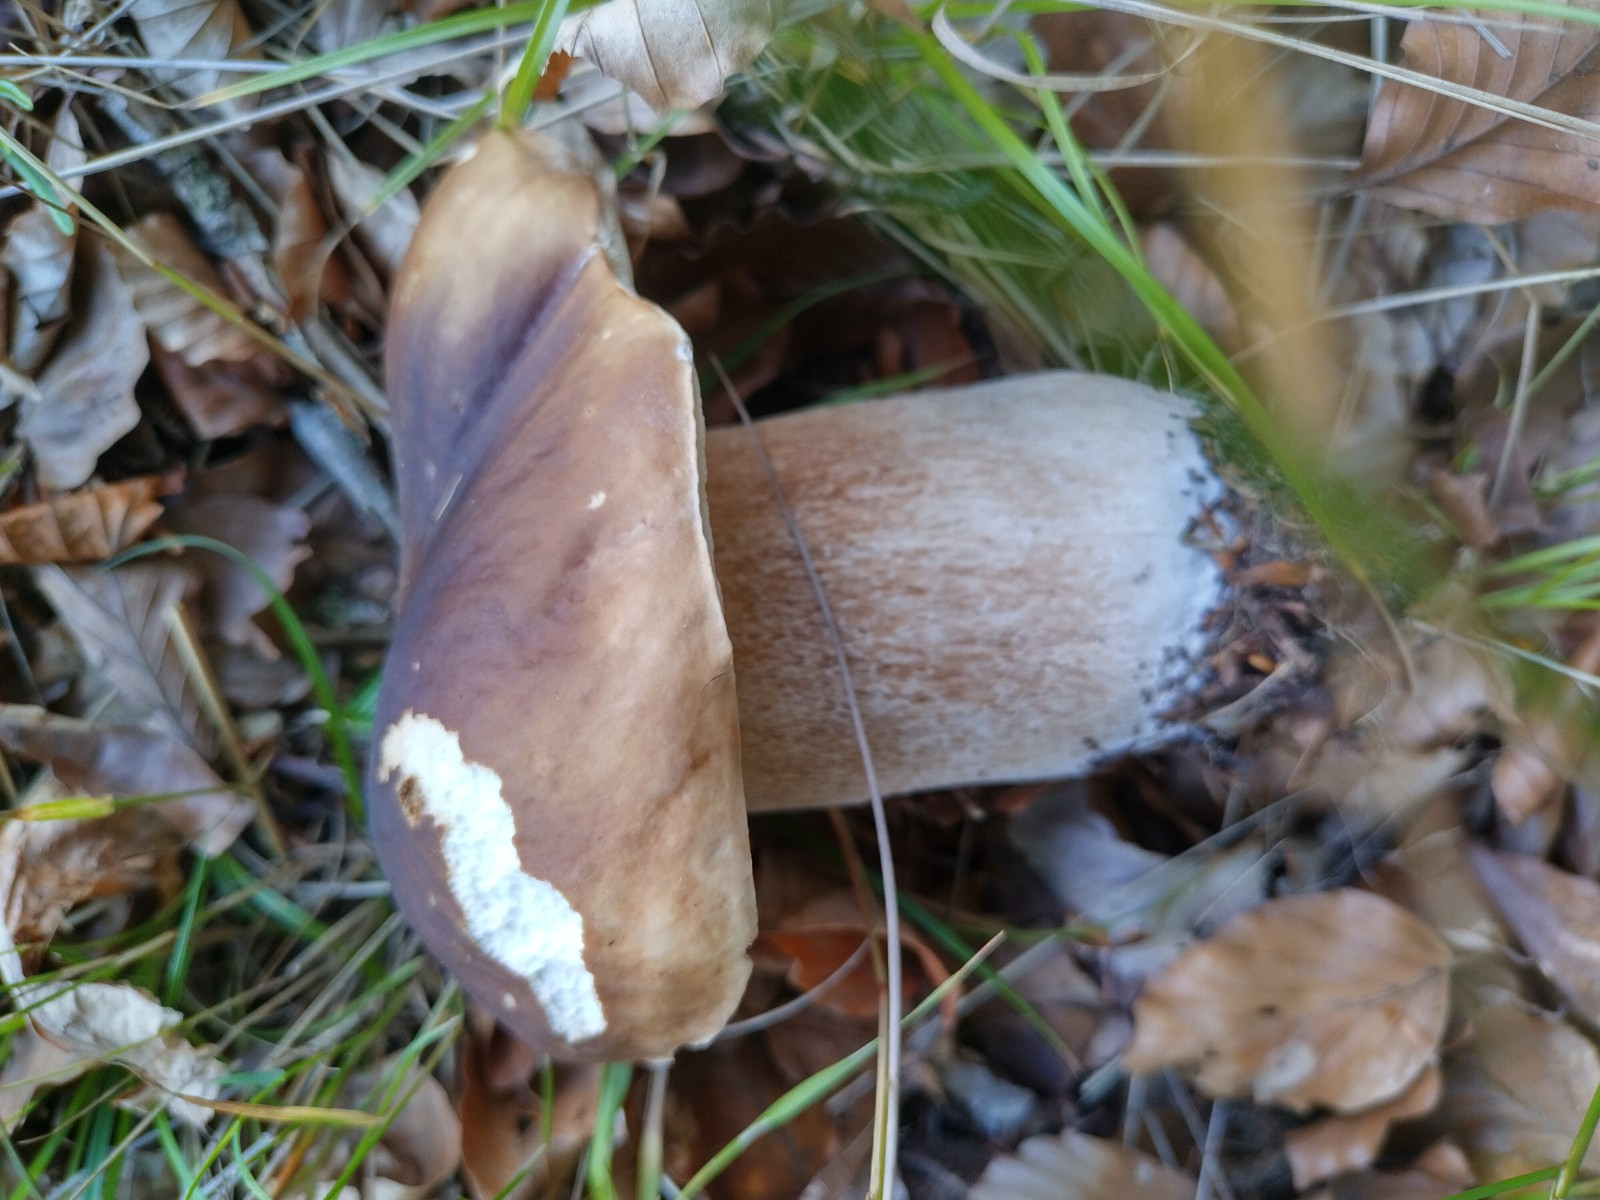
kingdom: Fungi
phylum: Basidiomycota
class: Agaricomycetes
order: Boletales
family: Boletaceae
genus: Boletus
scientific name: Boletus edulis
